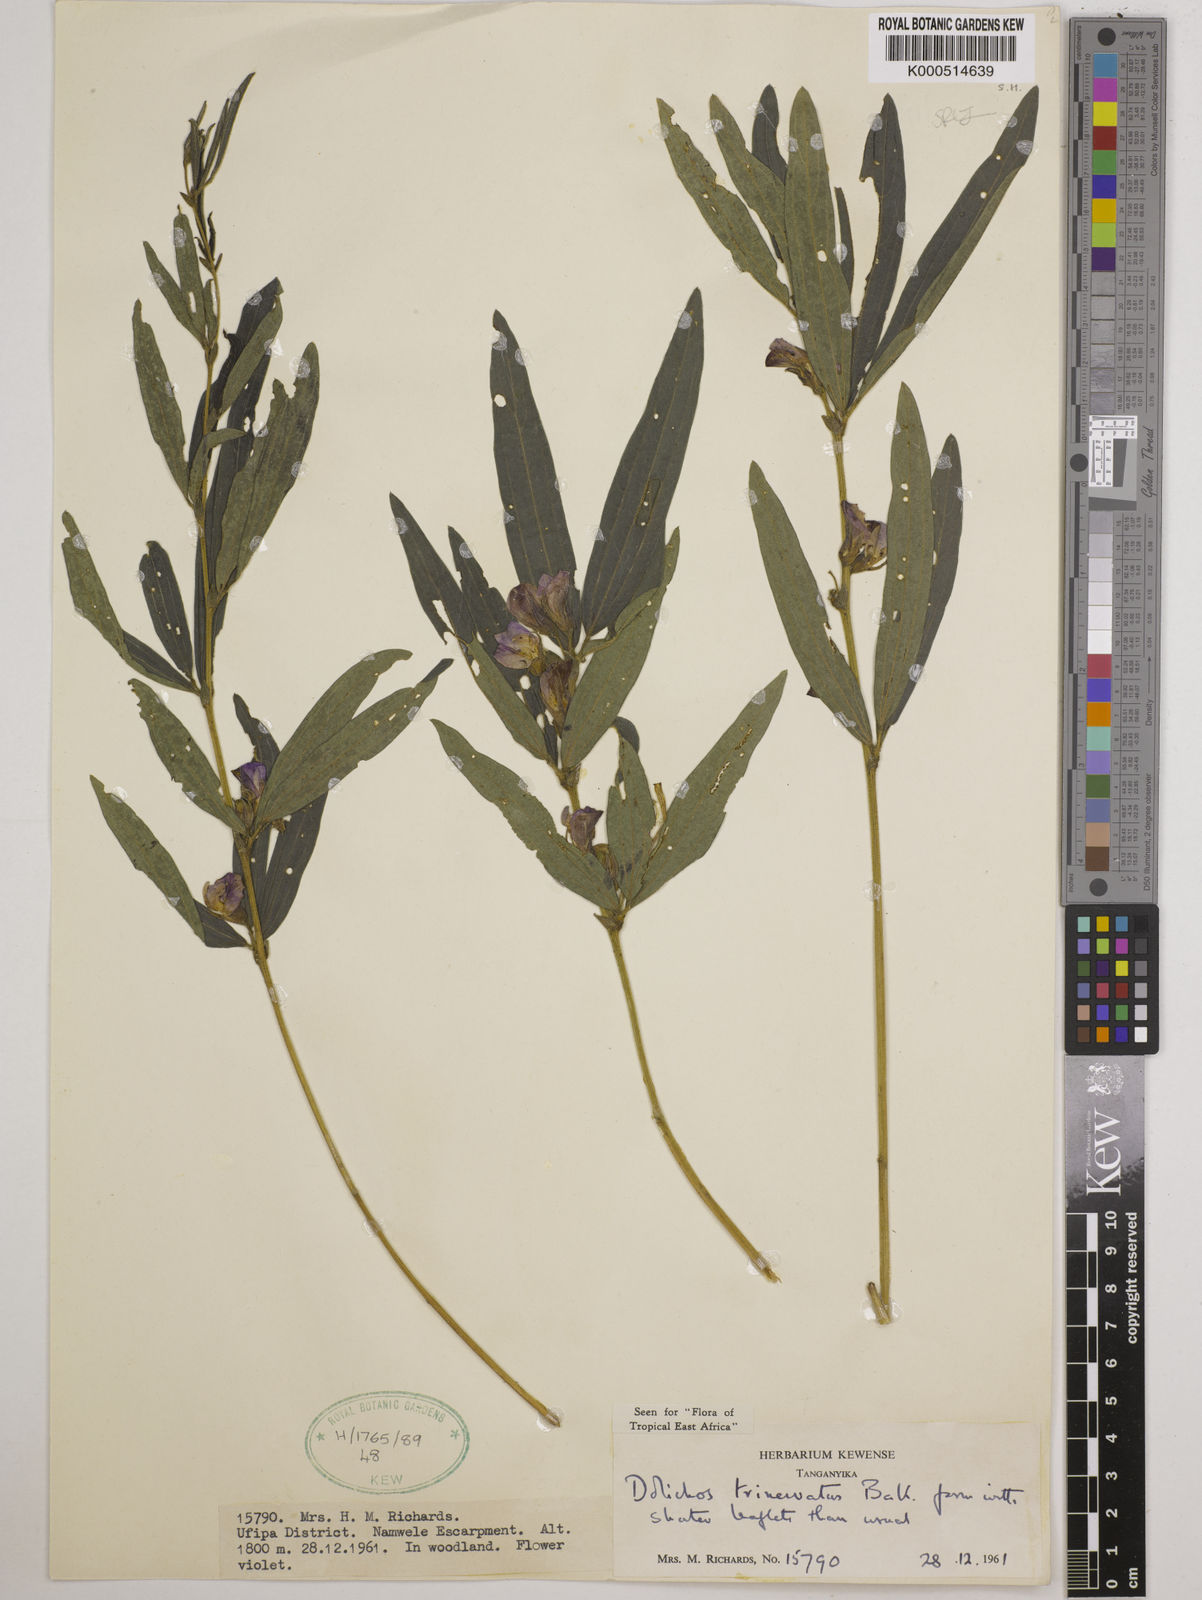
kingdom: Plantae
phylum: Tracheophyta
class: Magnoliopsida
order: Fabales
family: Fabaceae
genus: Dolichos
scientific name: Dolichos trinervatus
